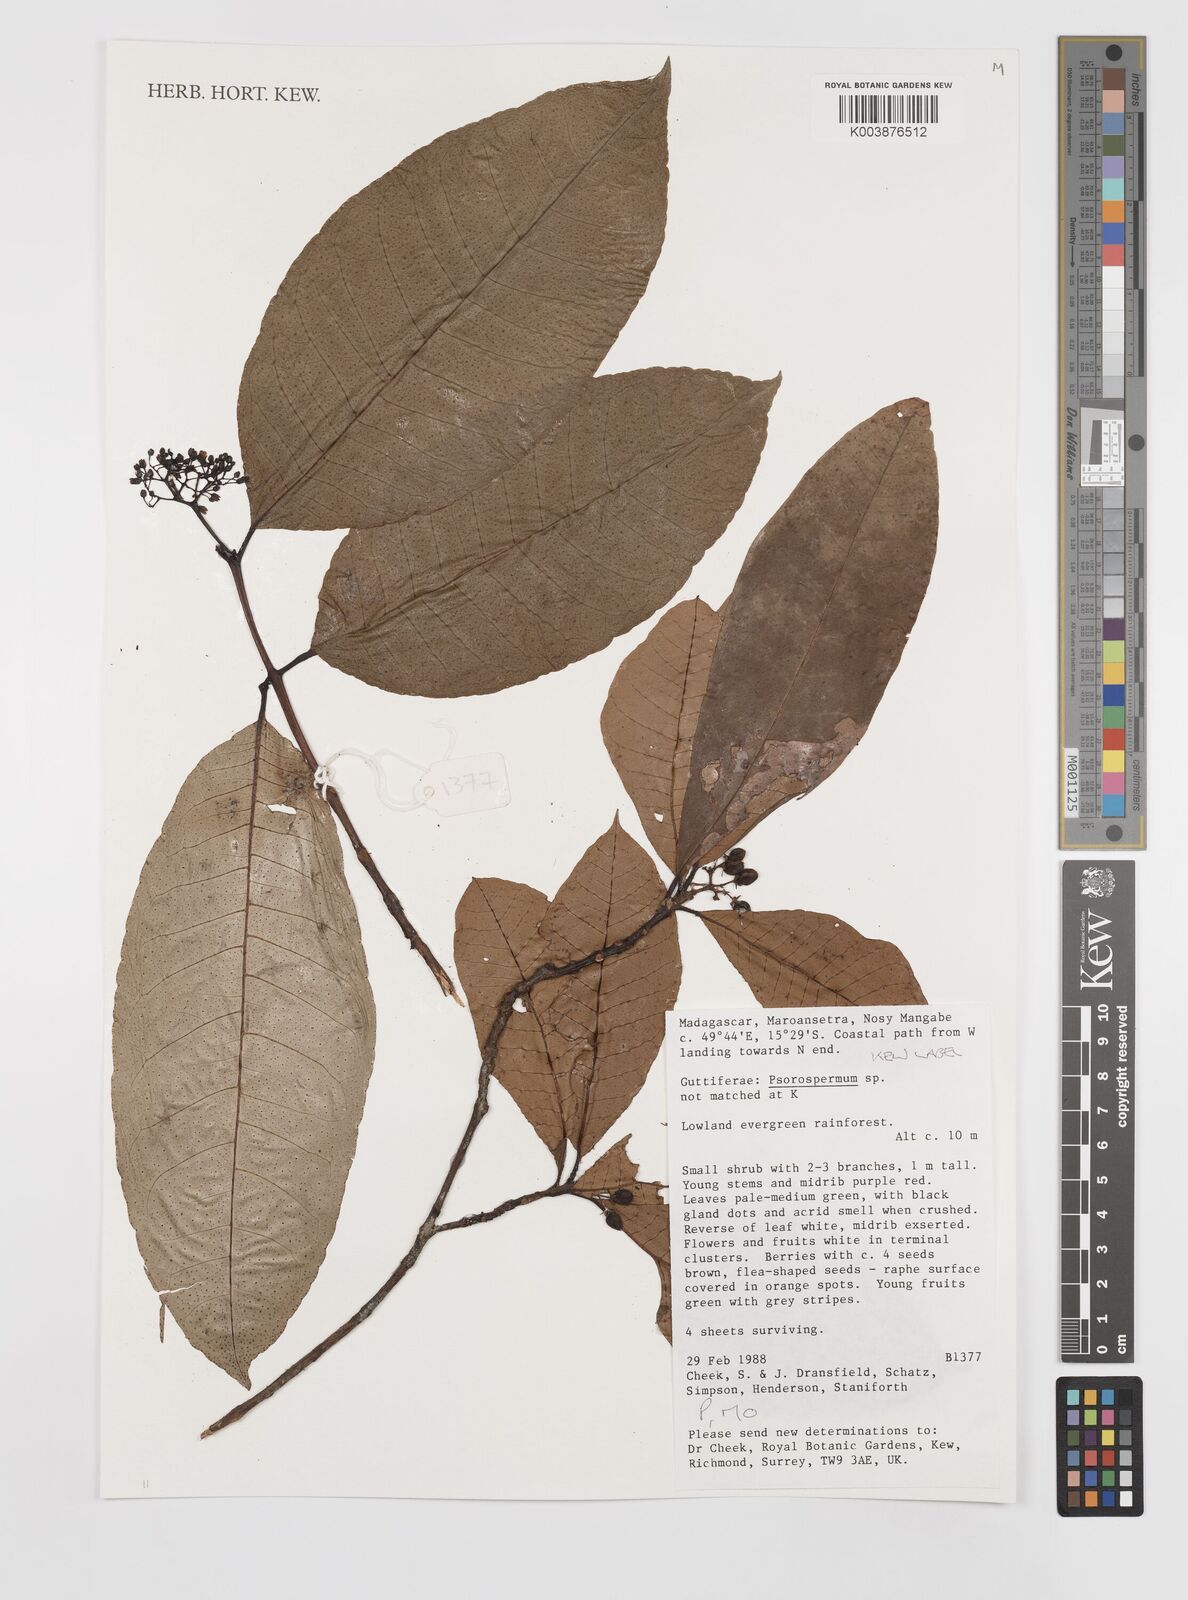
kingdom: Plantae
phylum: Tracheophyta
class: Magnoliopsida
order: Malpighiales
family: Hypericaceae
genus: Psorospermum
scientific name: Psorospermum
